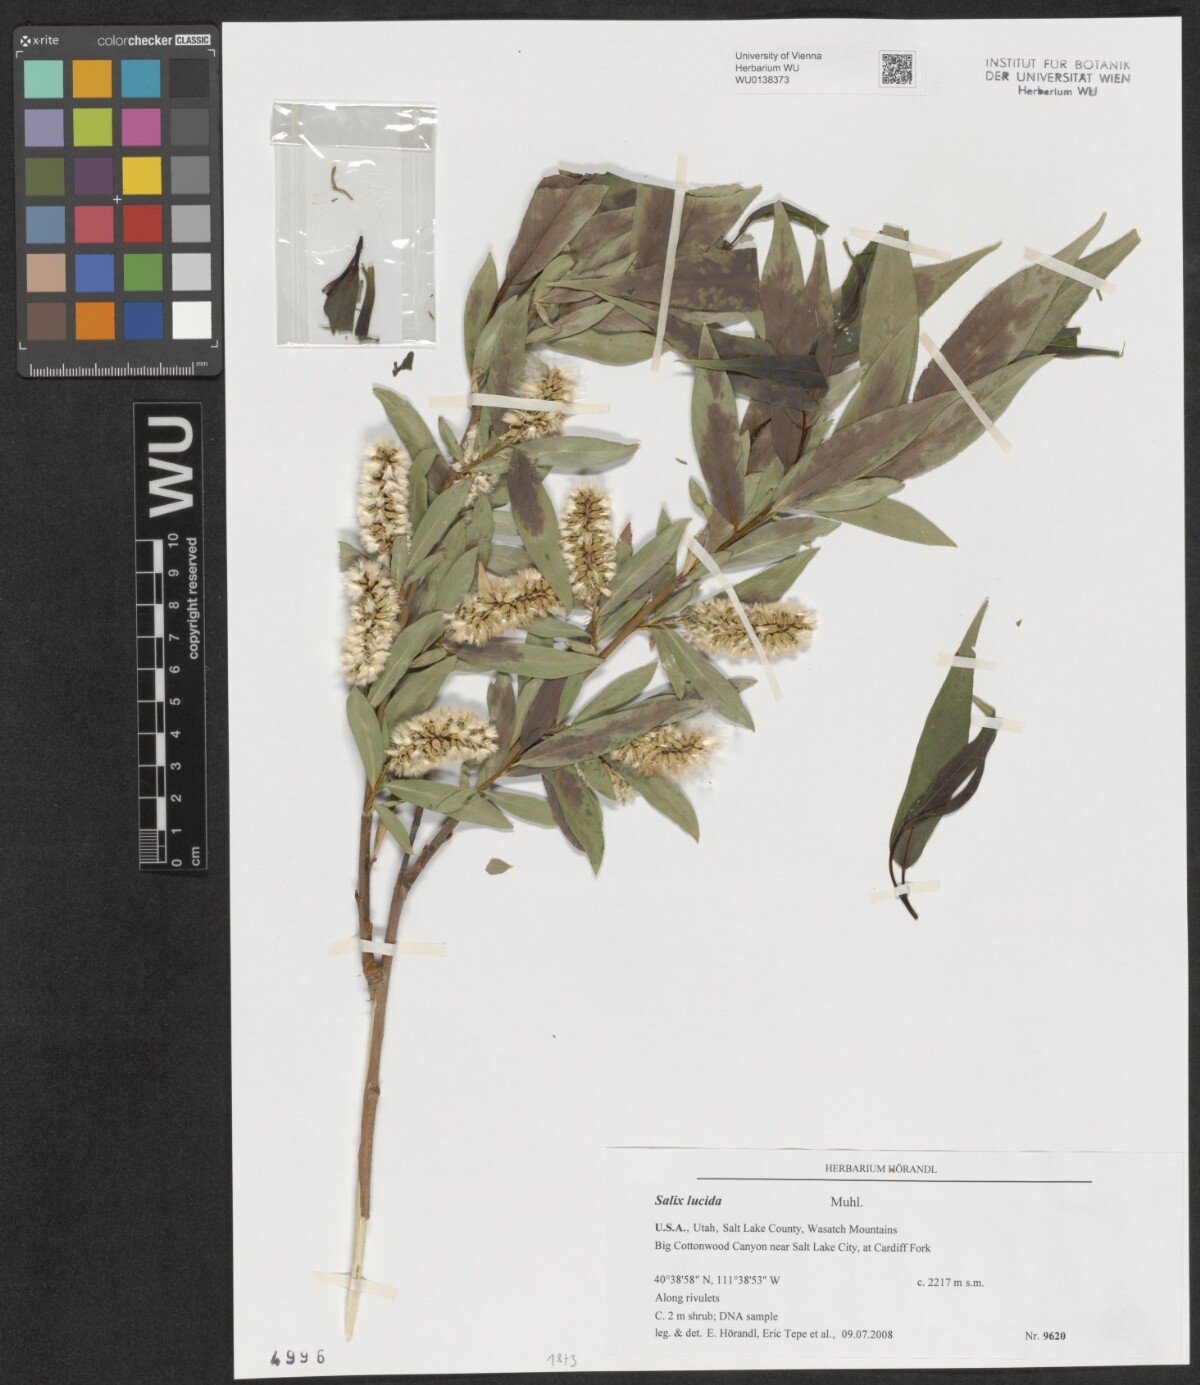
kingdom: Plantae
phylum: Tracheophyta
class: Magnoliopsida
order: Malpighiales
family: Salicaceae
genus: Salix
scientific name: Salix lucida
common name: Shining willow
